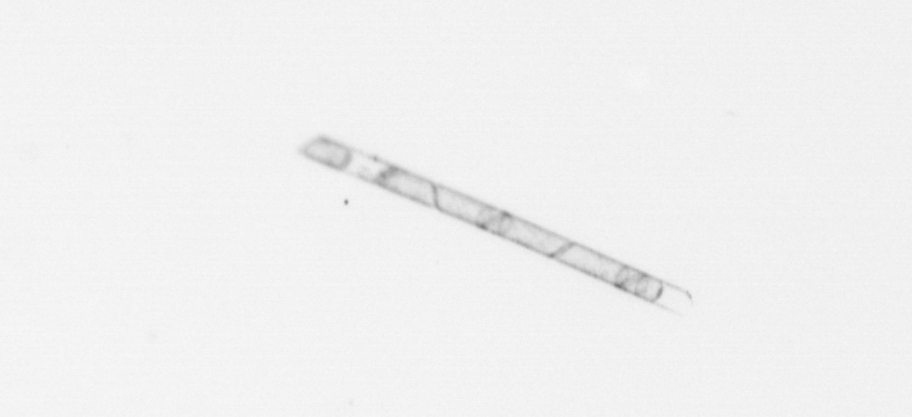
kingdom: Chromista
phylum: Ochrophyta
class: Bacillariophyceae
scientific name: Bacillariophyceae
